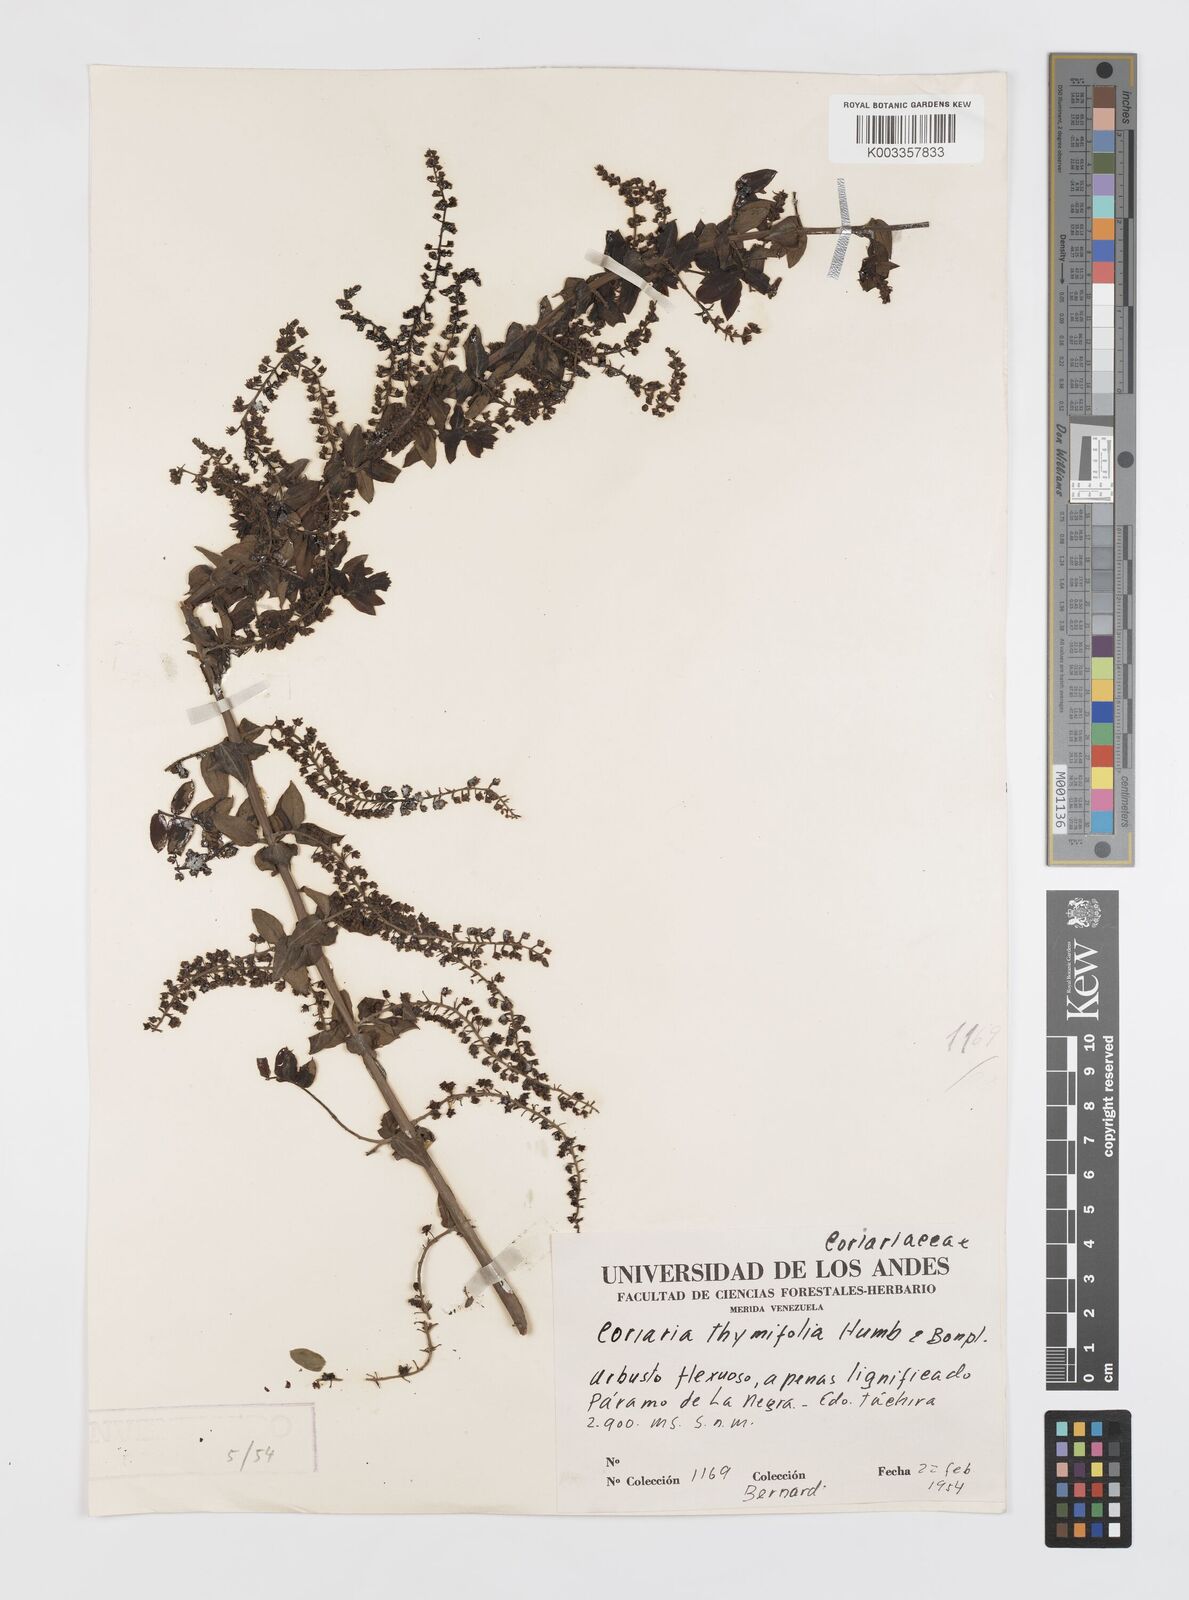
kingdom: Plantae
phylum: Tracheophyta
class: Magnoliopsida
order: Cucurbitales
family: Coriariaceae
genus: Coriaria
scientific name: Coriaria microphylla
